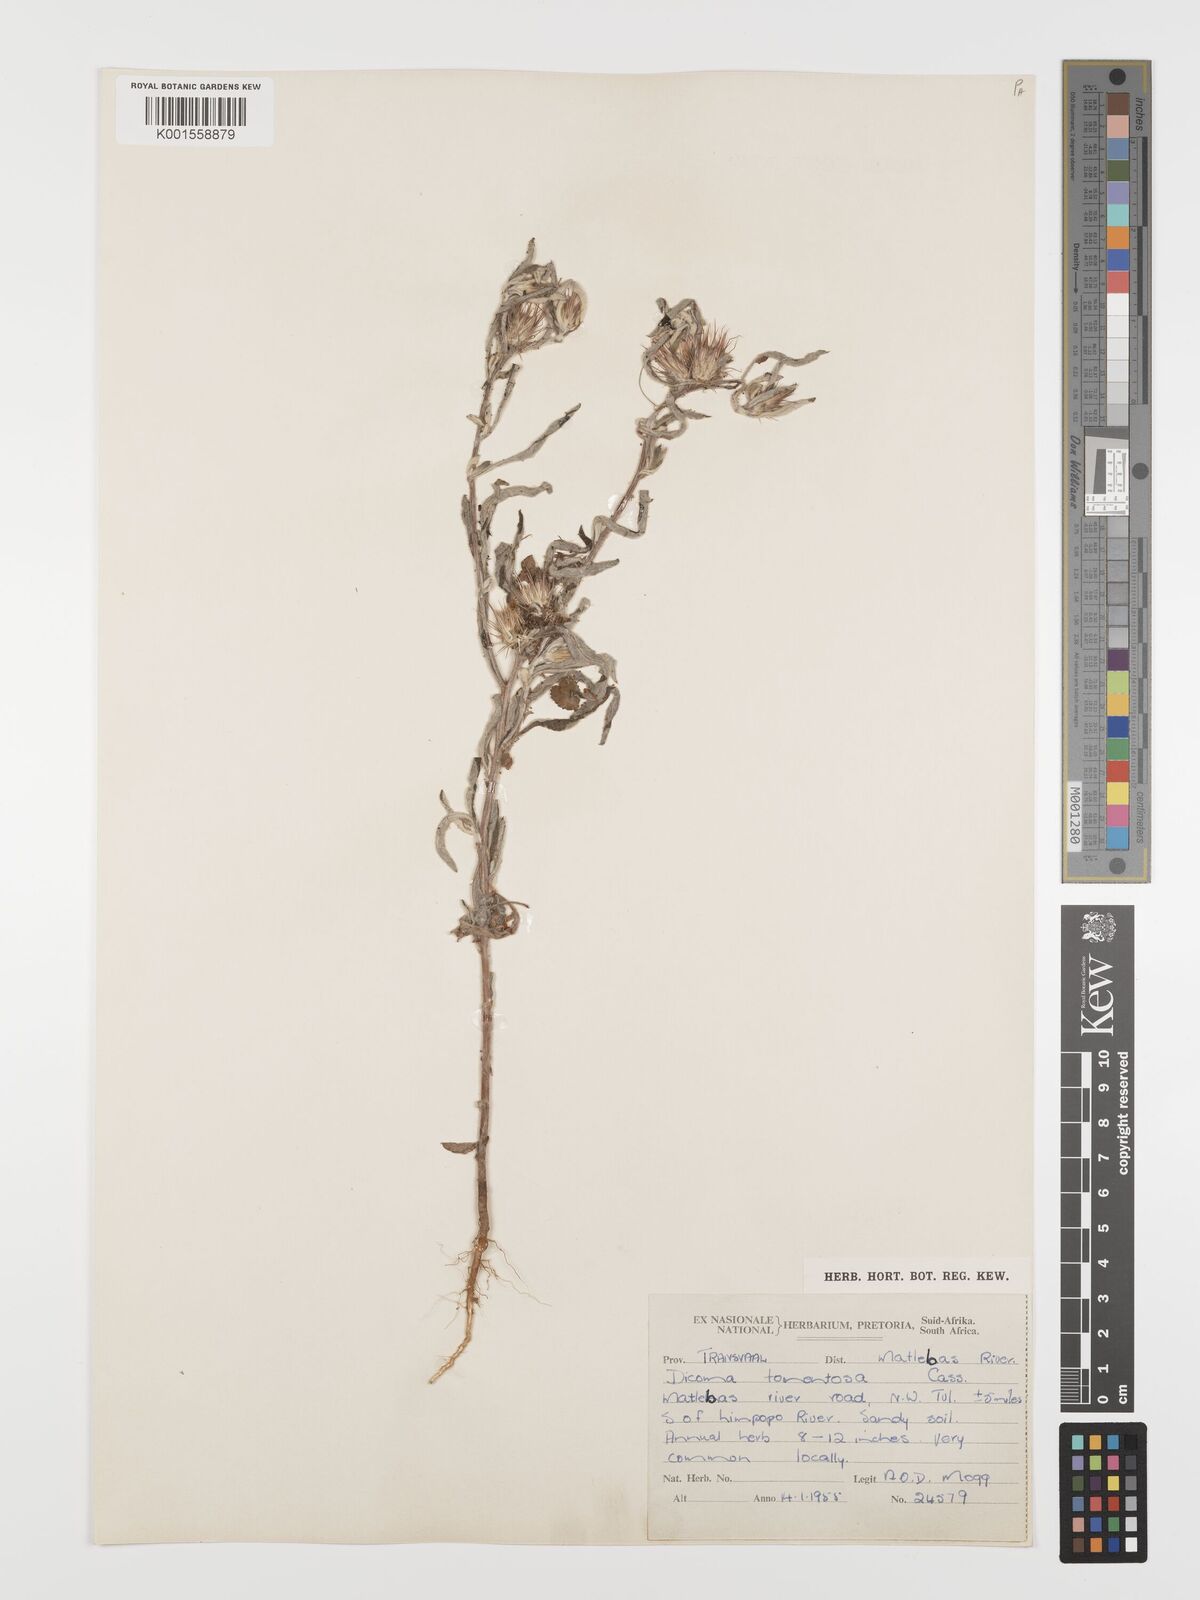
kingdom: Plantae
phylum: Tracheophyta
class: Magnoliopsida
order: Asterales
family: Asteraceae
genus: Dicoma
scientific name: Dicoma tomentosa
